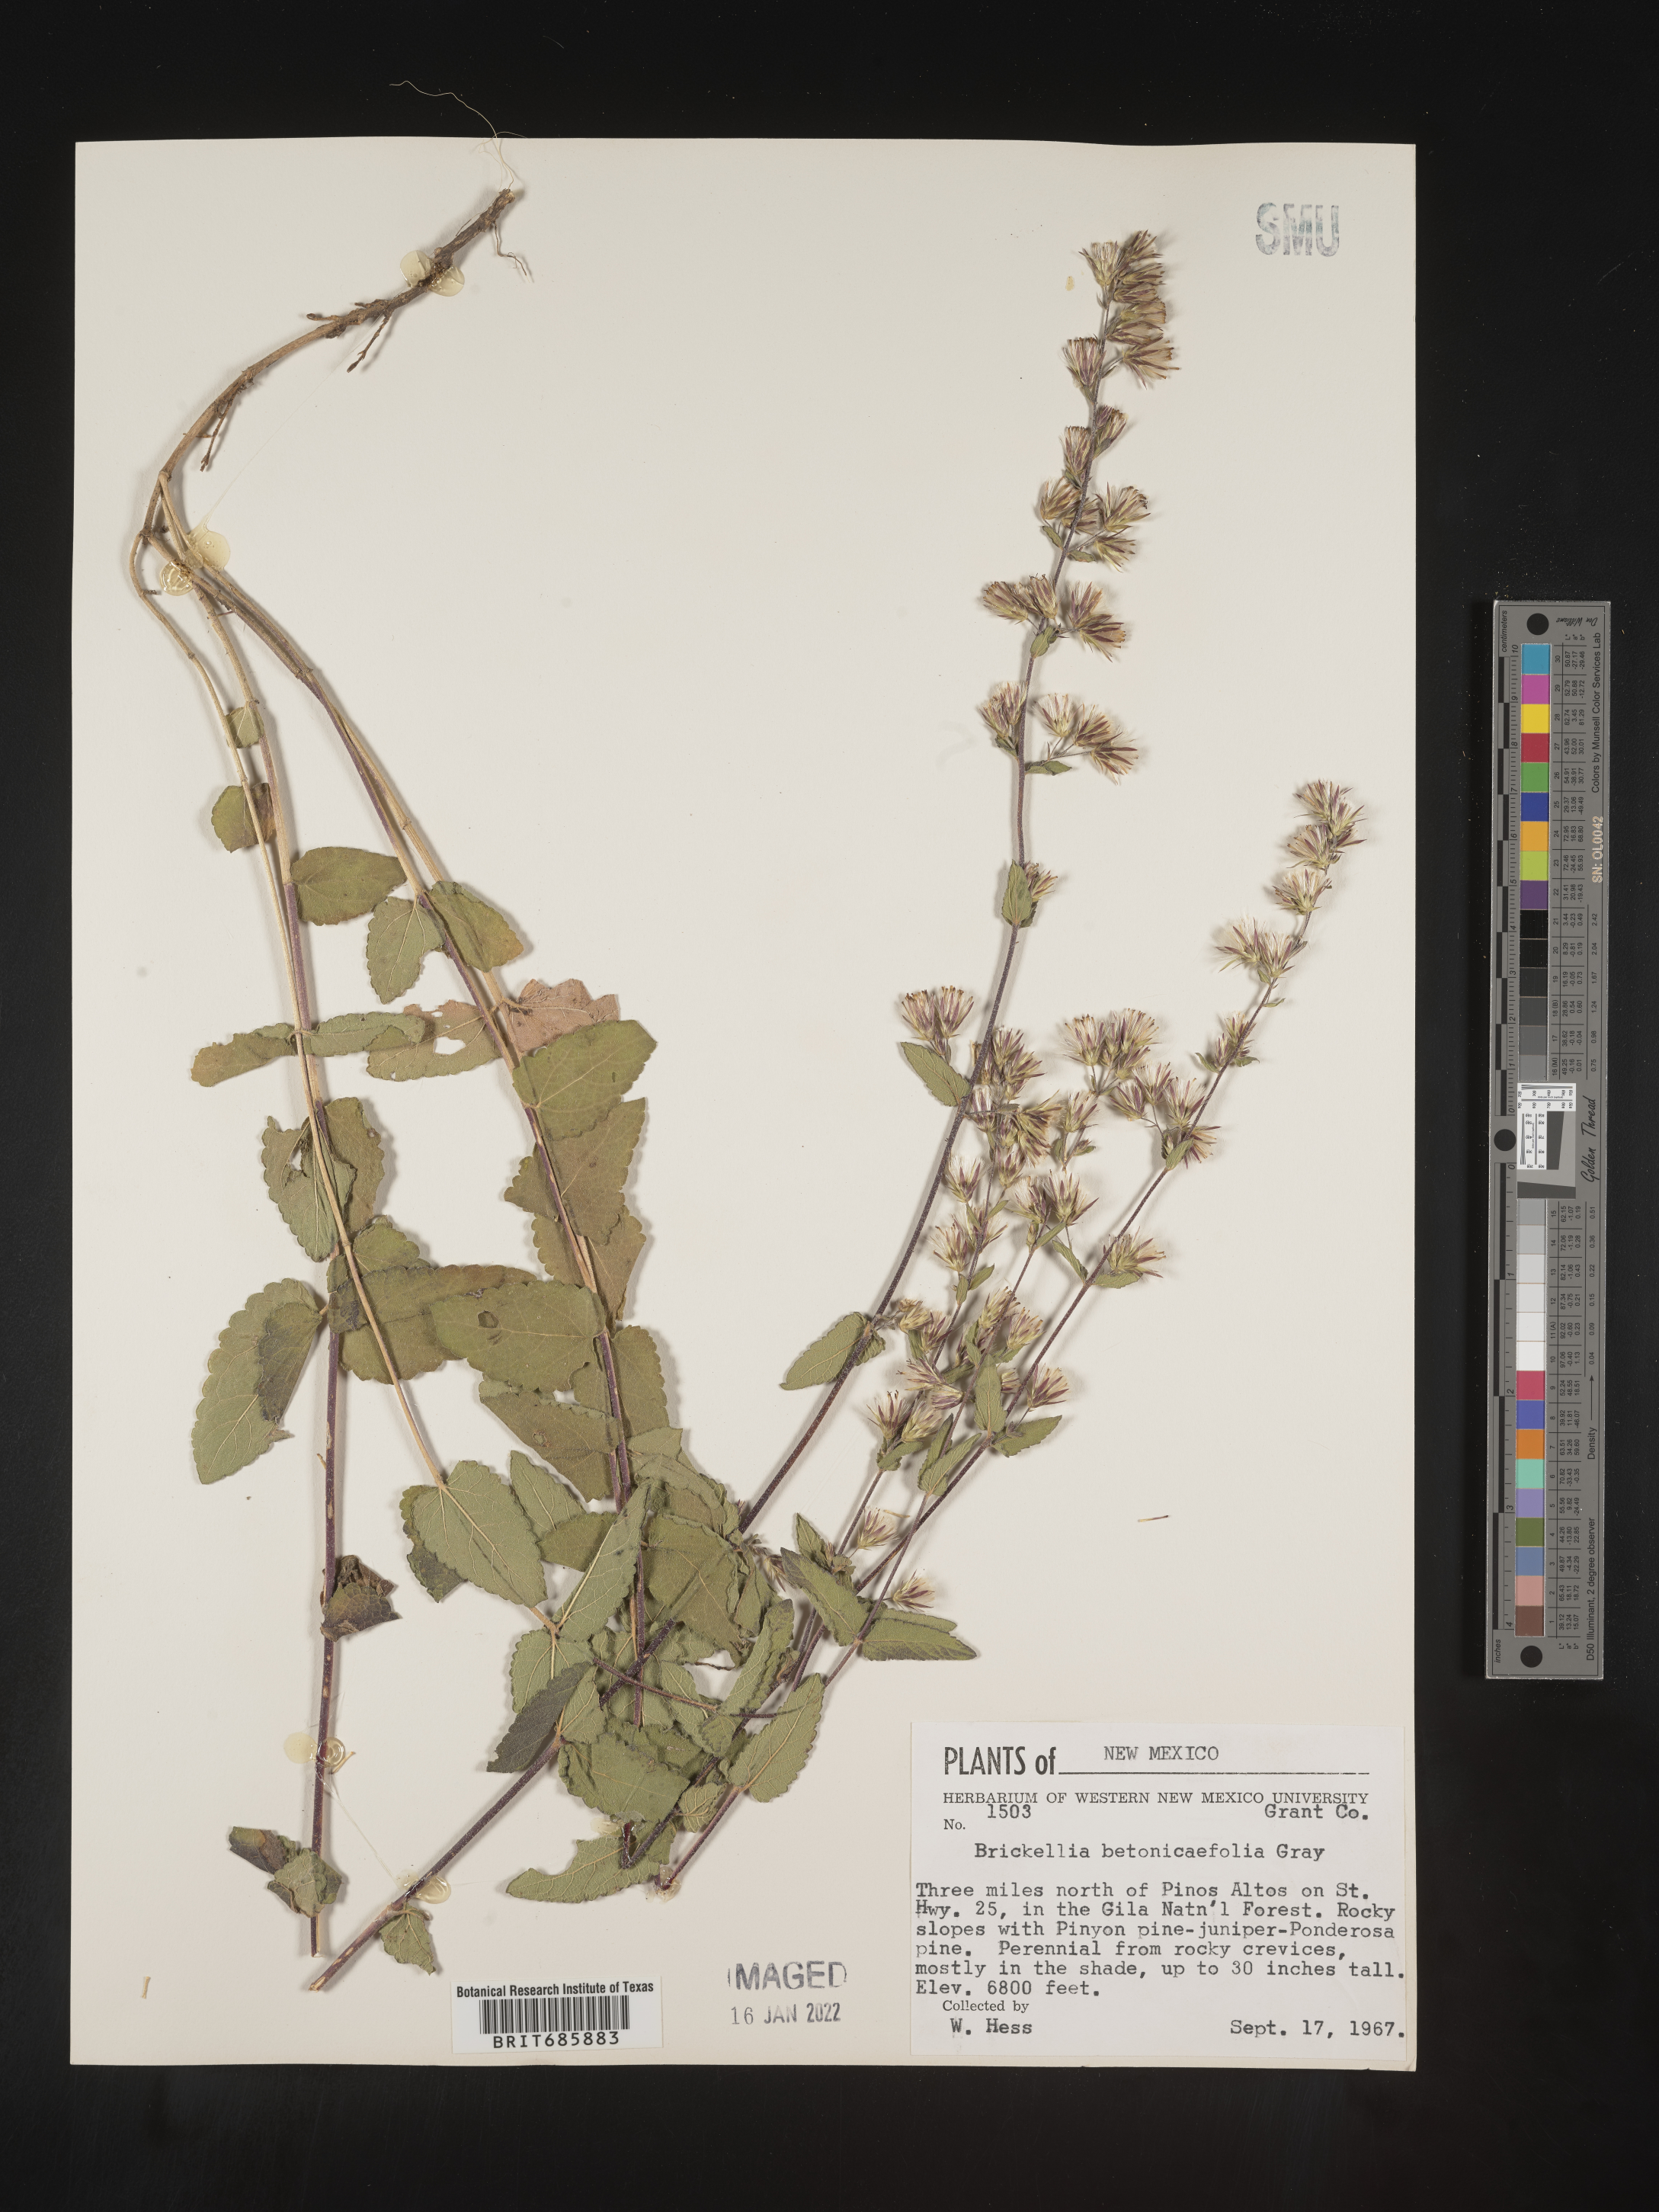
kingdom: Plantae
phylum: Tracheophyta
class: Magnoliopsida
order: Asterales
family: Asteraceae
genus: Brickellia
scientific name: Brickellia betonicifolia
